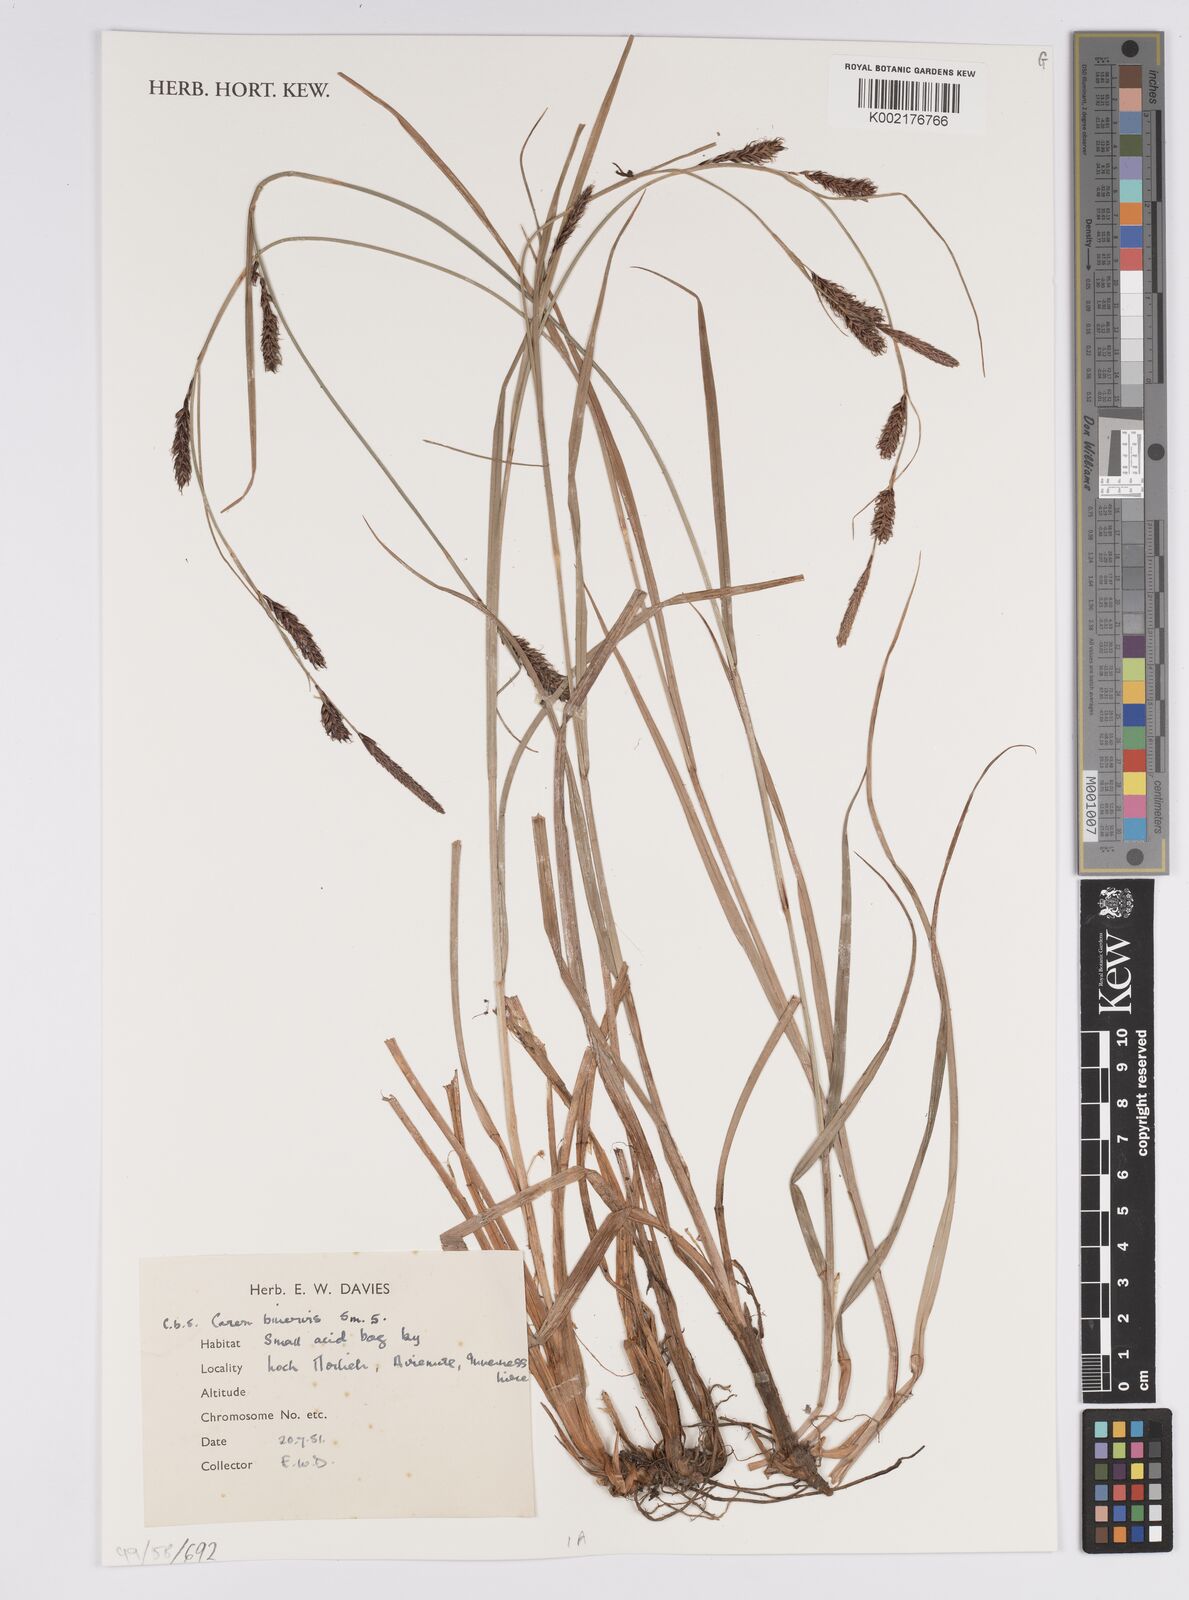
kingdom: Plantae
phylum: Tracheophyta
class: Liliopsida
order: Poales
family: Cyperaceae
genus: Carex
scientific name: Carex binervis
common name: Green-ribbed sedge
